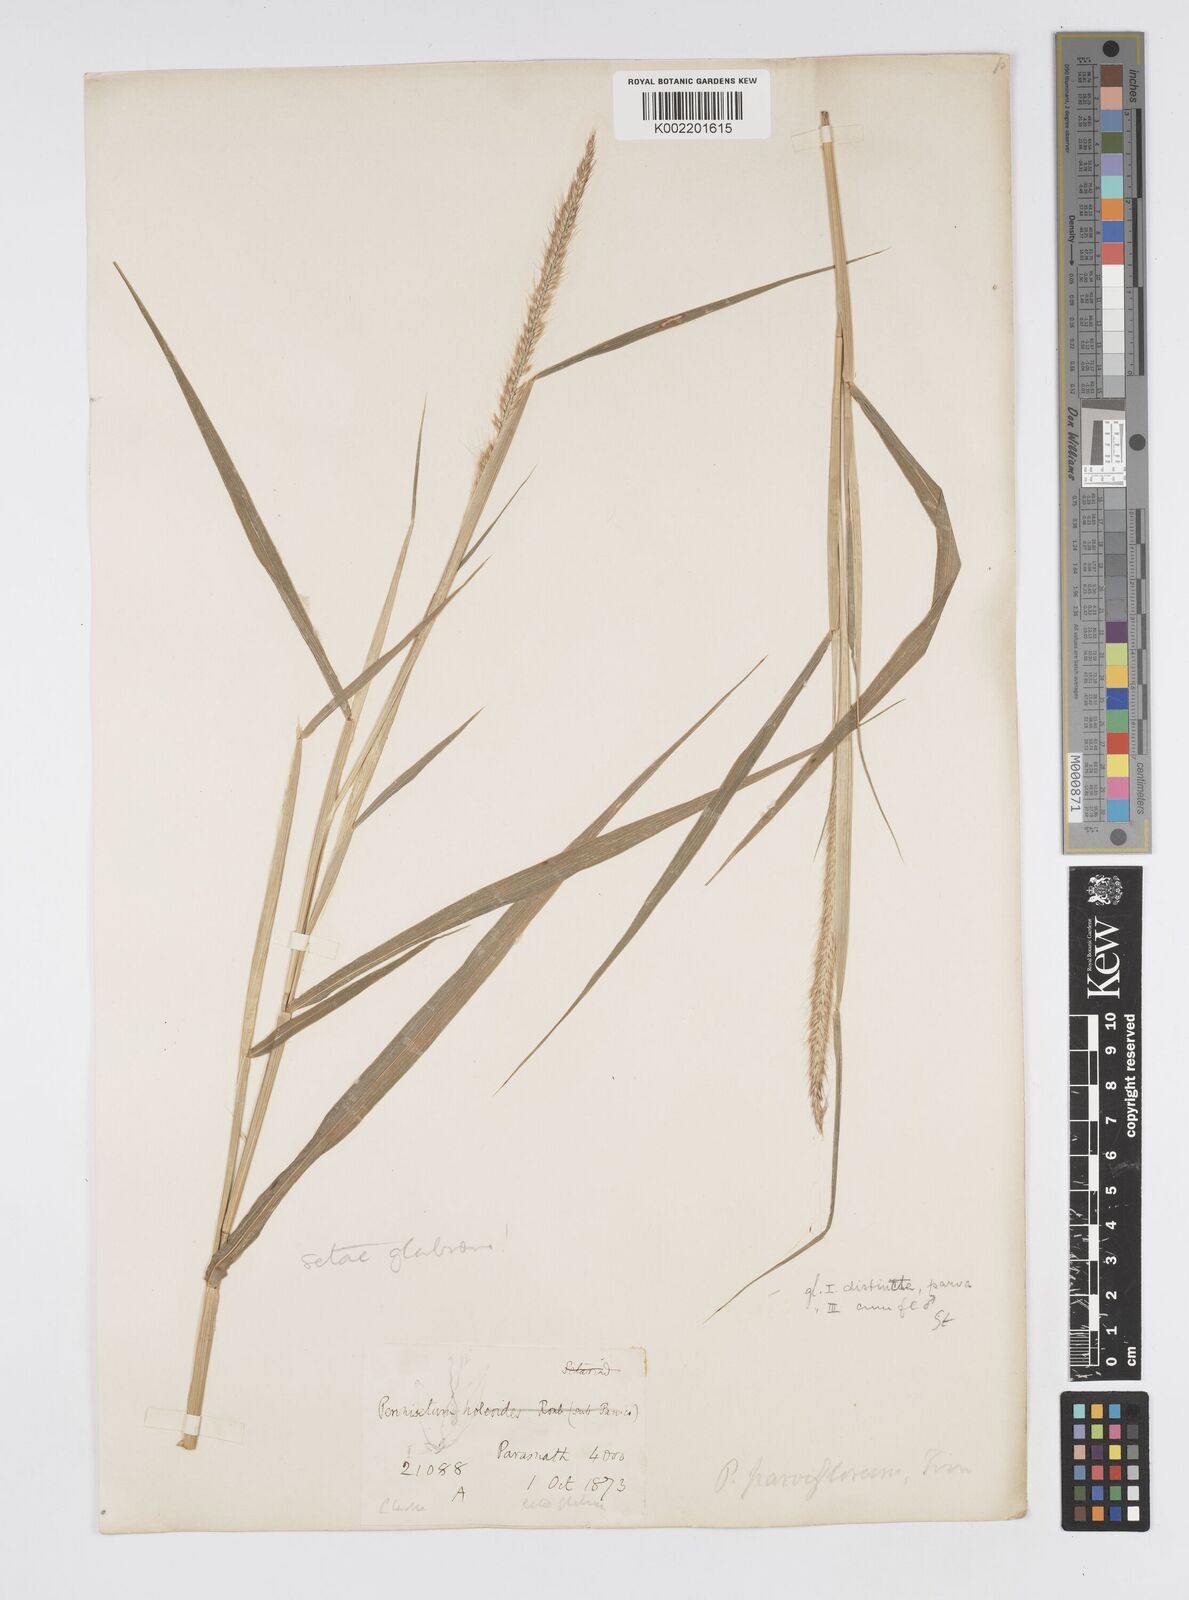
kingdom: Plantae
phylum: Tracheophyta
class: Liliopsida
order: Poales
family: Poaceae
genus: Cenchrus
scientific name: Cenchrus hordeoides
